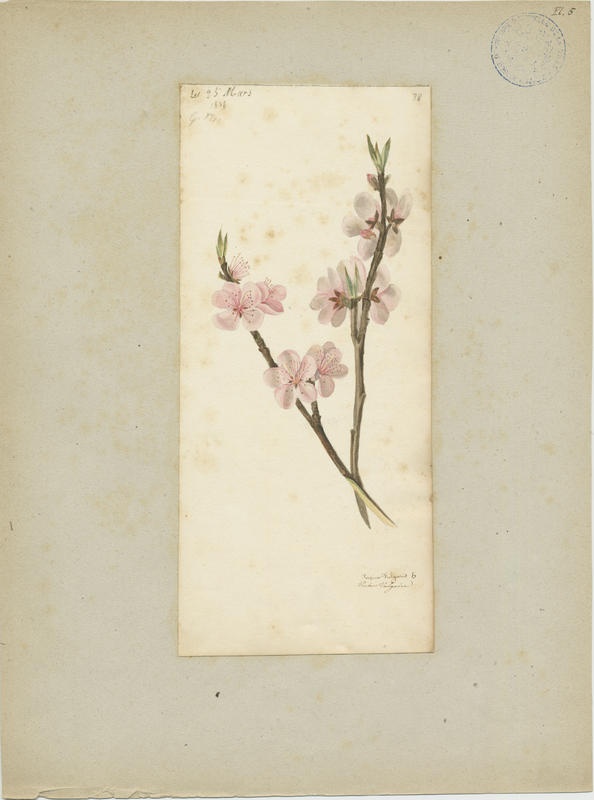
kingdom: Plantae
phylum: Tracheophyta
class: Magnoliopsida
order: Rosales
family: Rosaceae
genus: Prunus
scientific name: Prunus persica
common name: Peach
